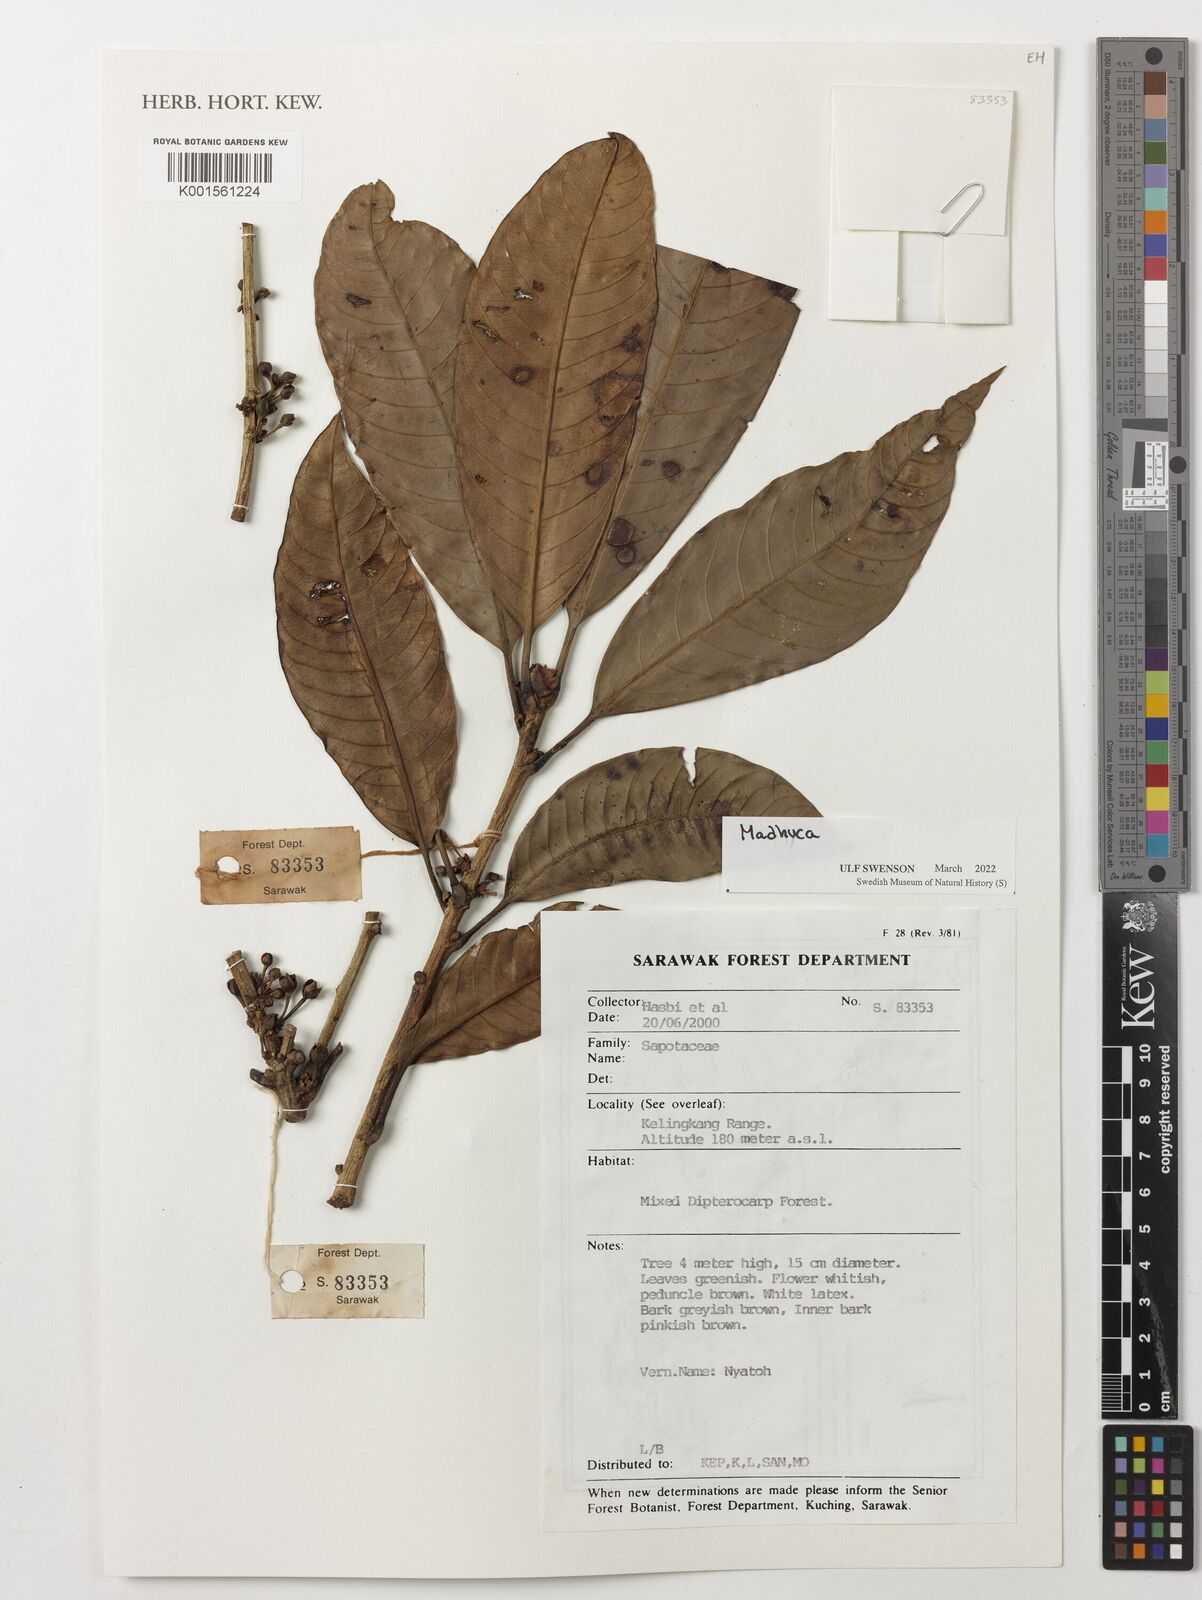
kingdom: Plantae
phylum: Tracheophyta
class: Magnoliopsida
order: Ericales
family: Sapotaceae
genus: Madhuca
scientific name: Madhuca
